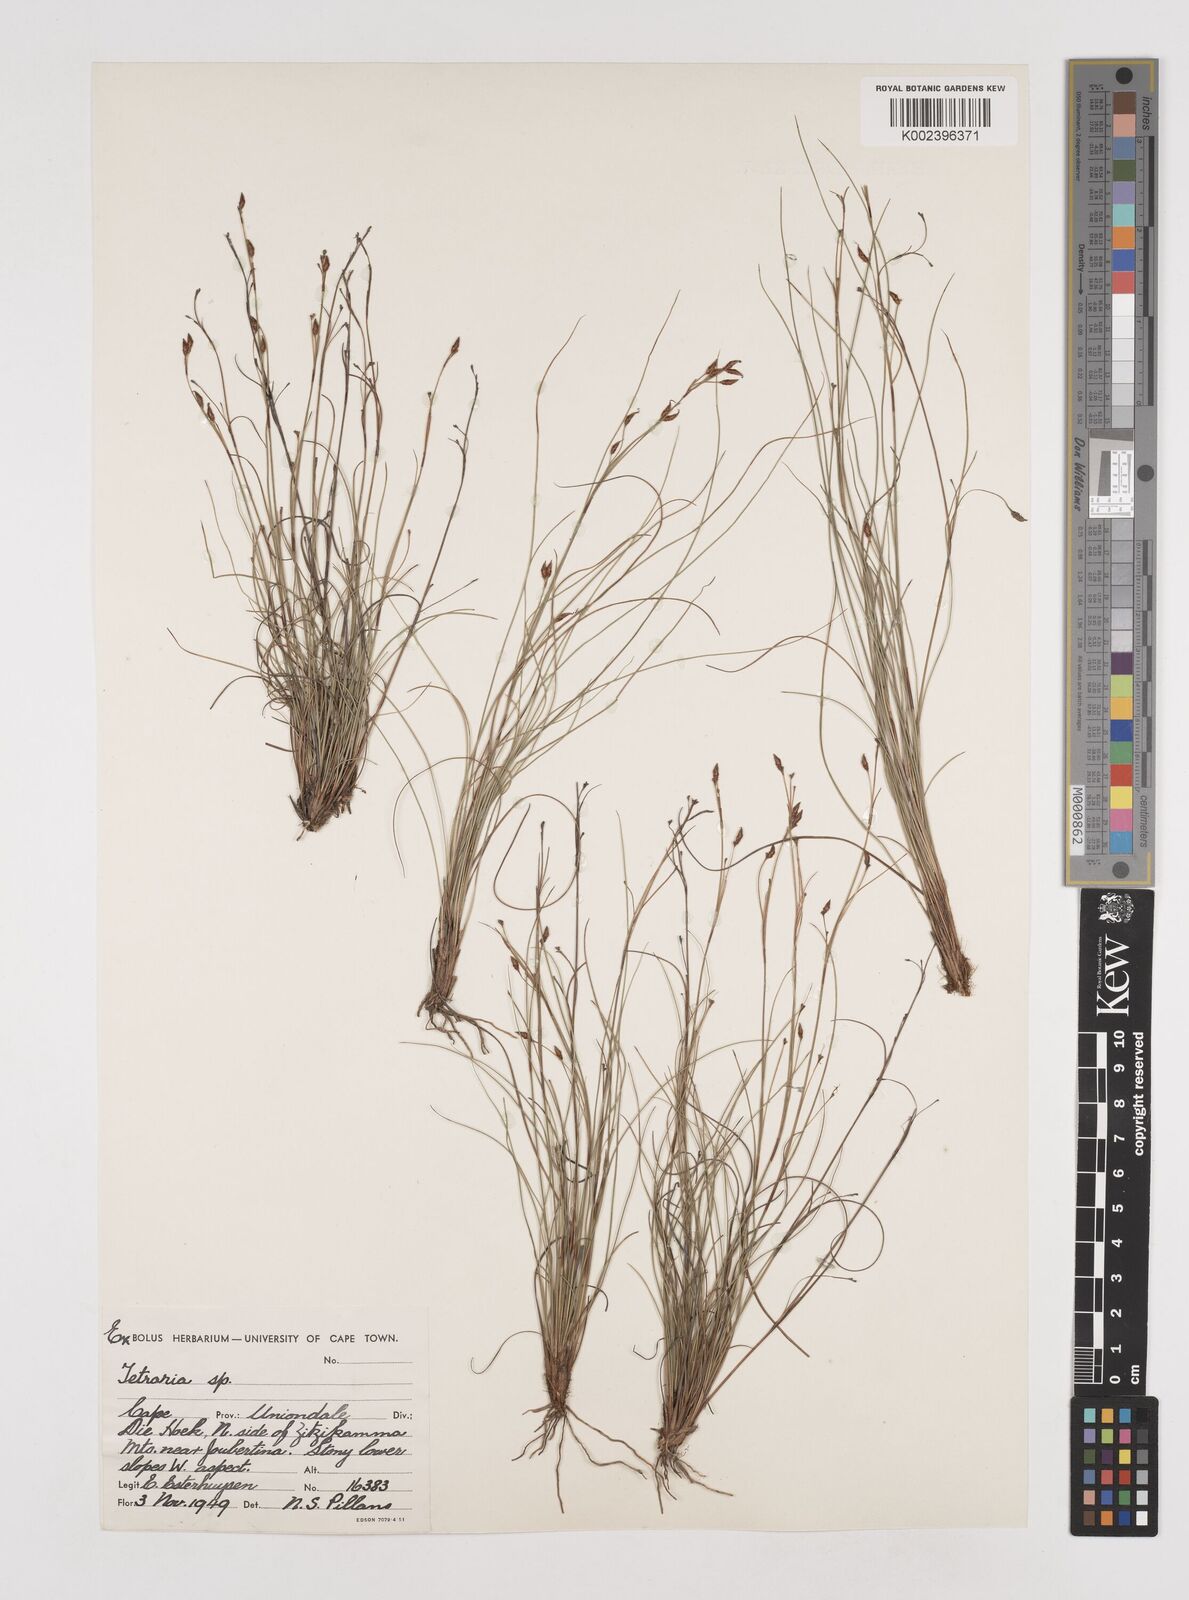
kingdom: Plantae
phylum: Tracheophyta
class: Liliopsida
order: Poales
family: Cyperaceae
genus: Tetraria
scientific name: Tetraria
